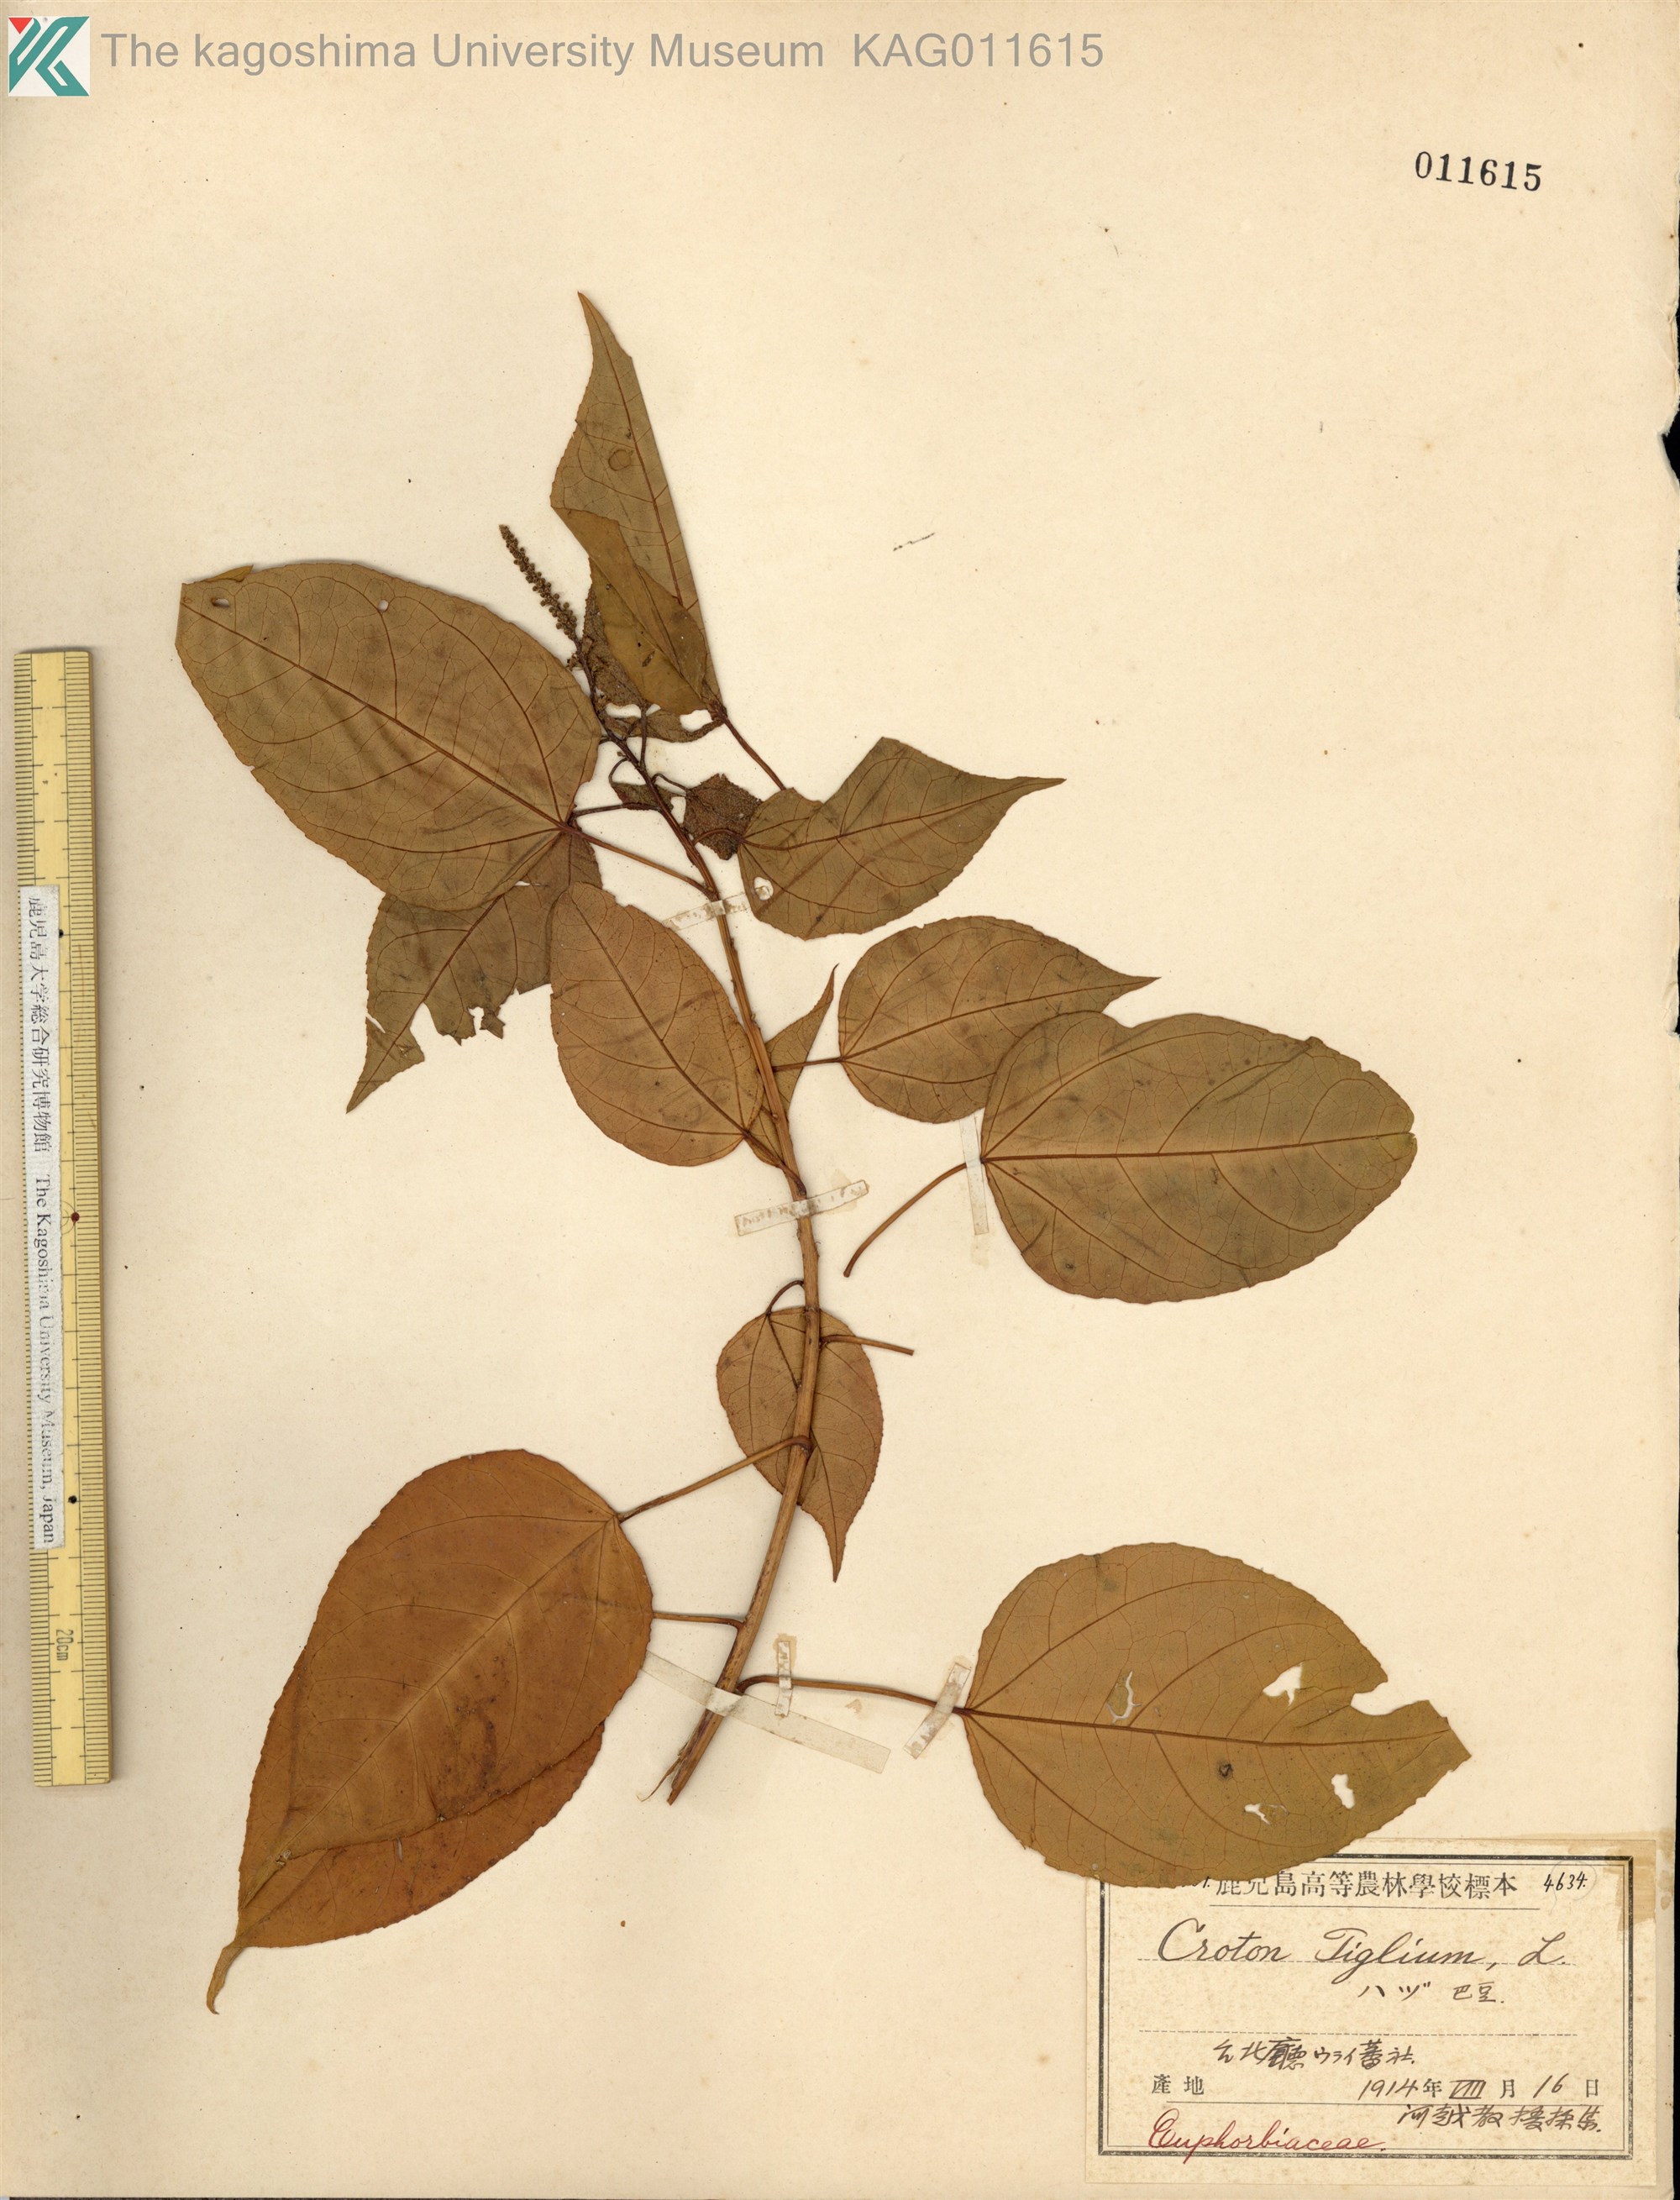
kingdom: Plantae
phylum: Tracheophyta
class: Magnoliopsida
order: Malpighiales
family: Euphorbiaceae
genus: Croton
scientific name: Croton tiglium
